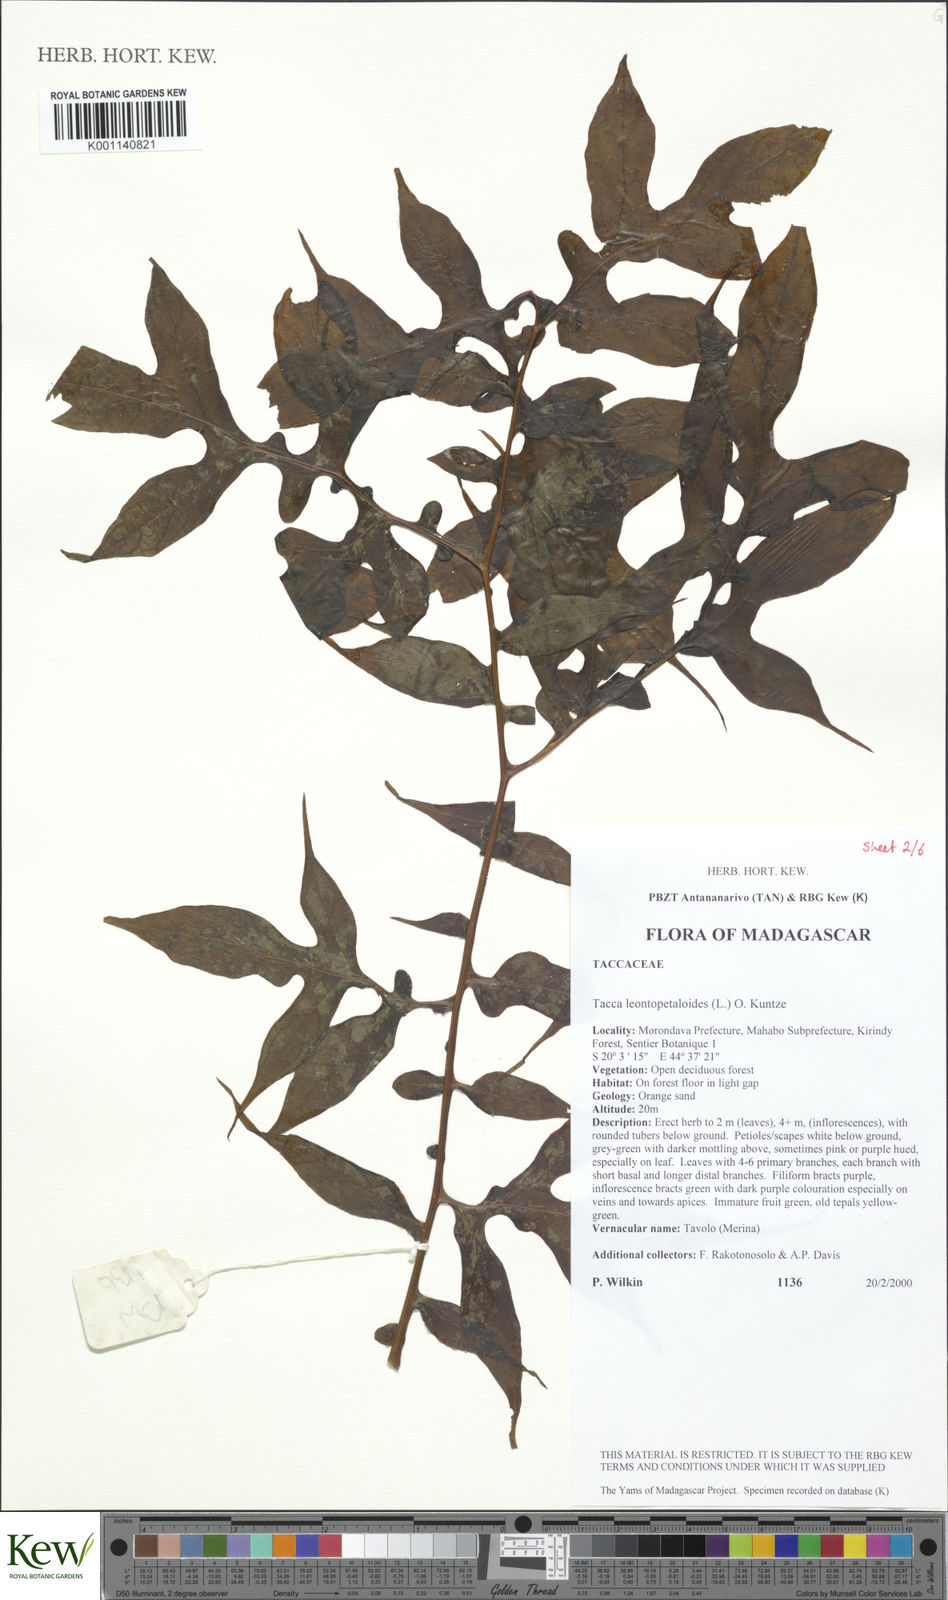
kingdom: Plantae
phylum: Tracheophyta
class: Liliopsida
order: Dioscoreales
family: Dioscoreaceae
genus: Tacca
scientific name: Tacca leontopetaloides
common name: Arrowroot
